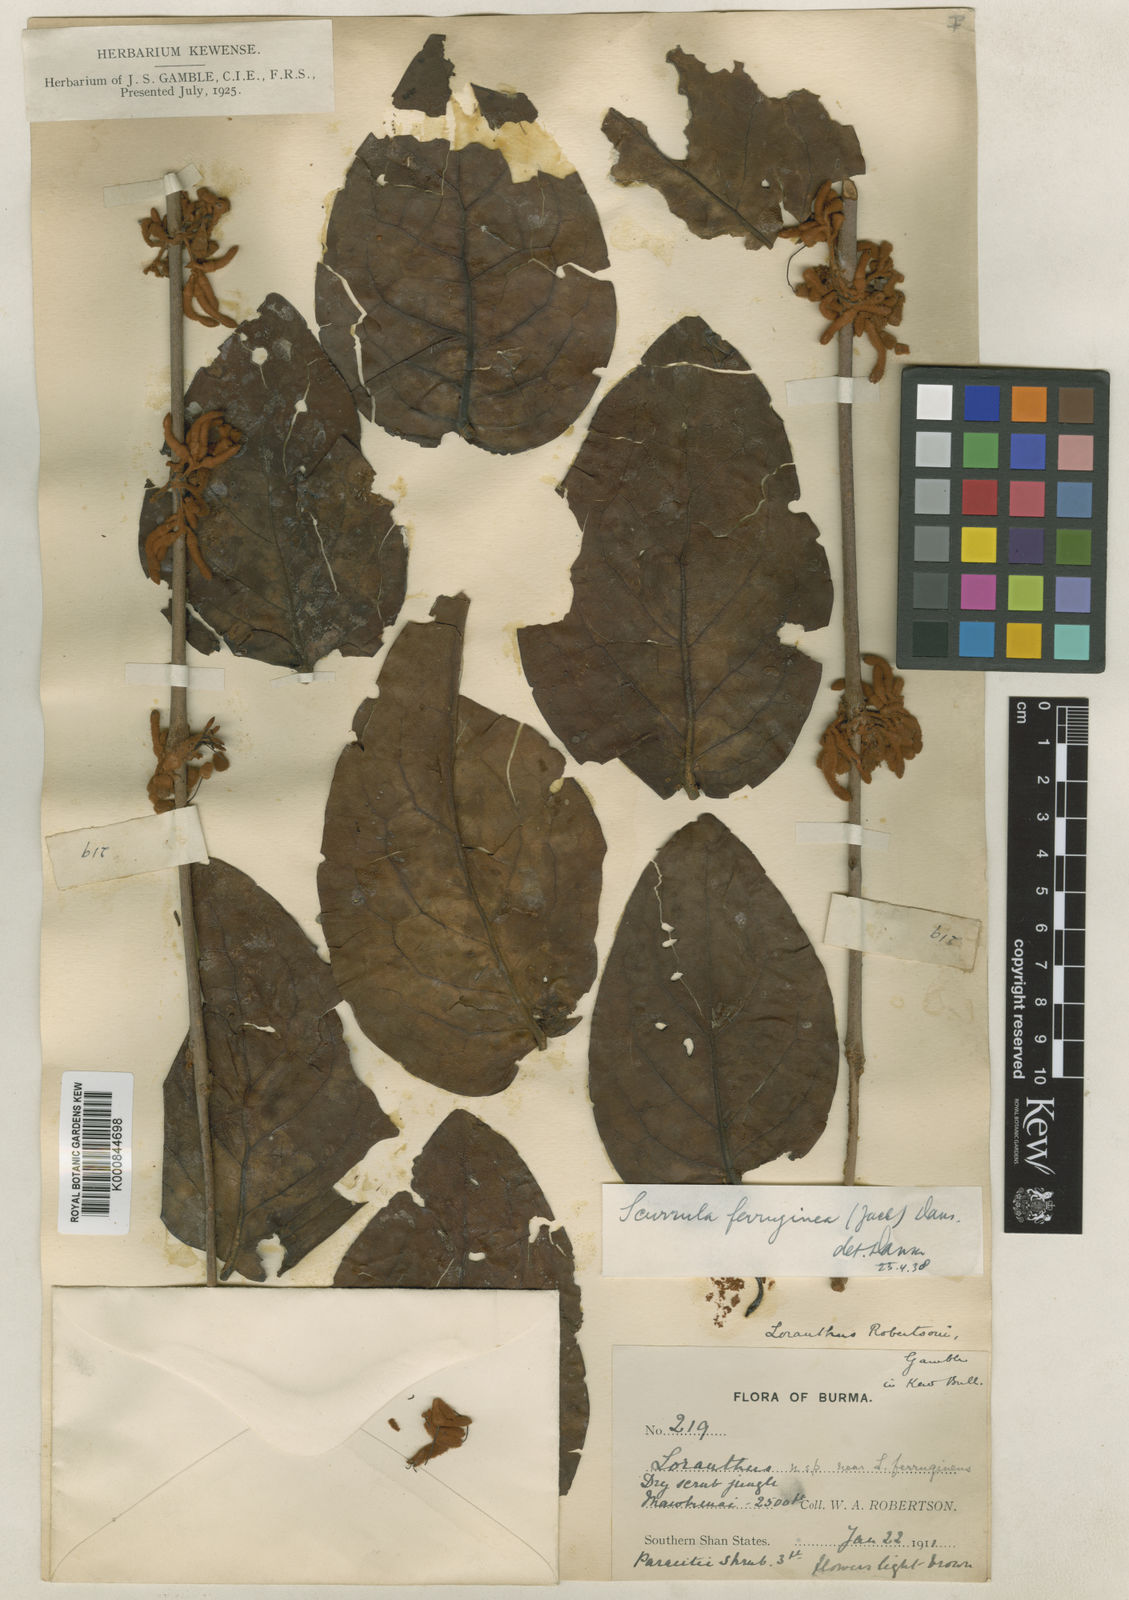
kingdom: Plantae
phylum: Tracheophyta
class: Magnoliopsida
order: Santalales
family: Loranthaceae
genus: Scurrula
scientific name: Scurrula robertsonii
